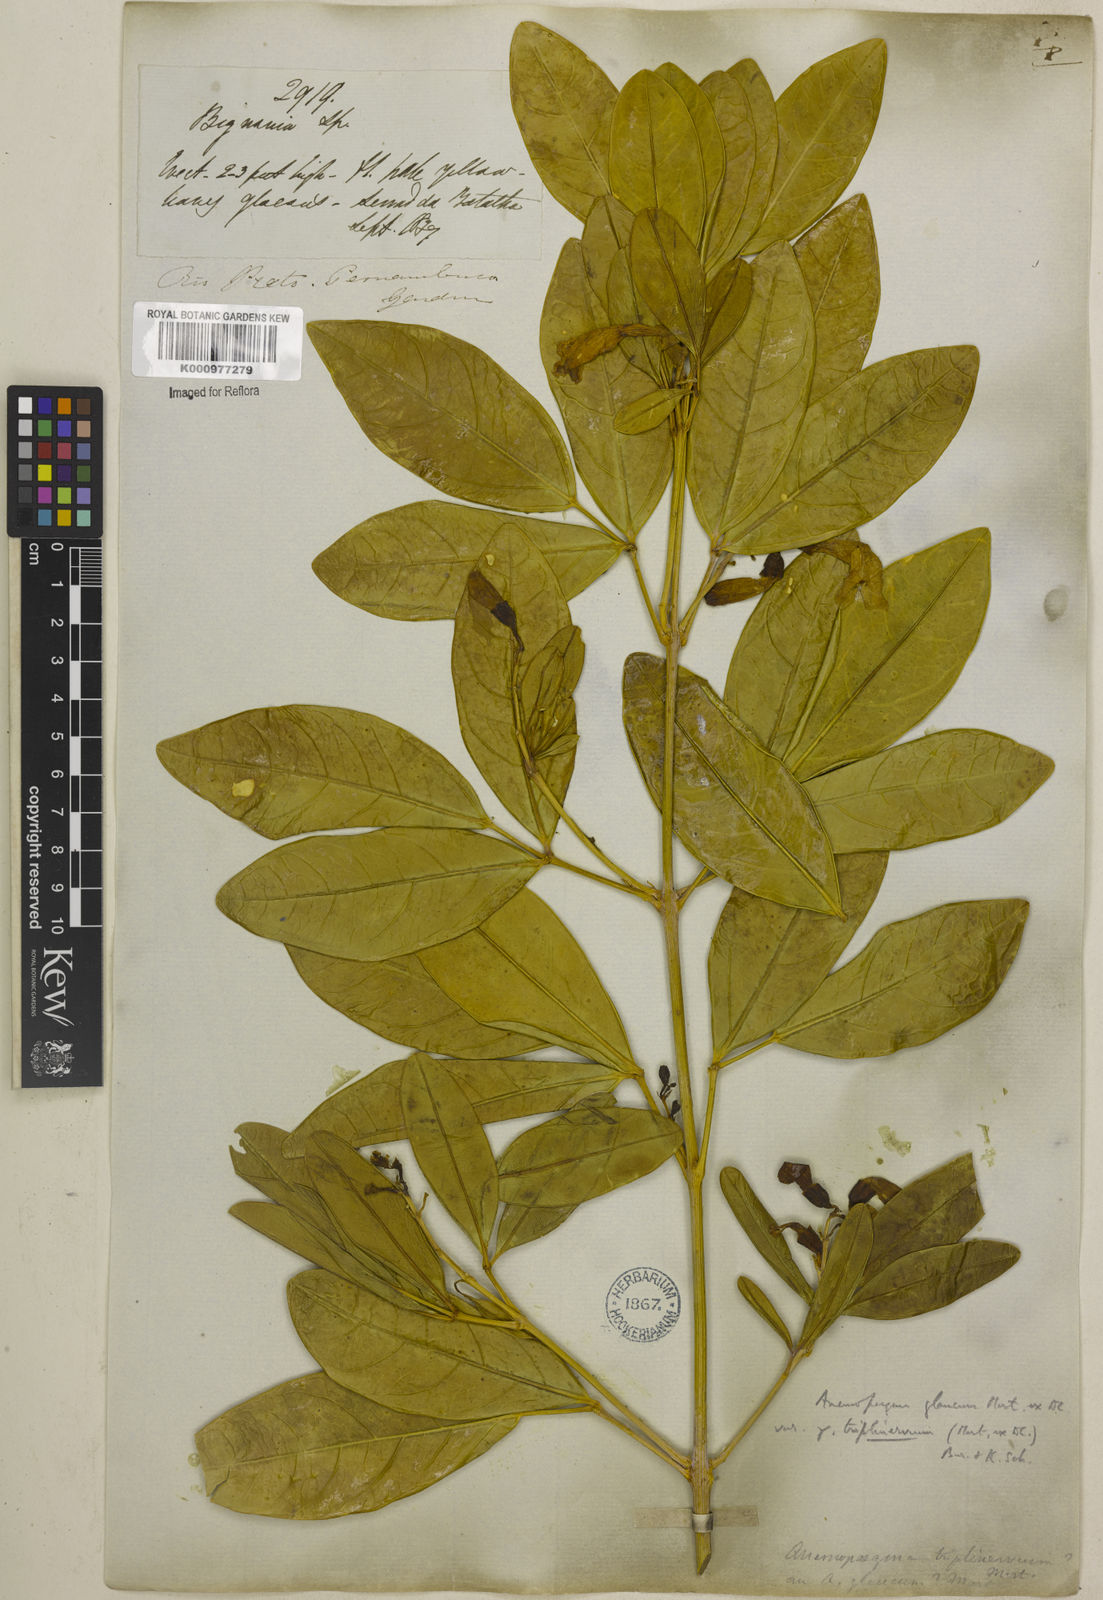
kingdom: Plantae
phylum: Tracheophyta
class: Magnoliopsida
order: Lamiales
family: Bignoniaceae
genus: Anemopaegma
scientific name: Anemopaegma glaucum
